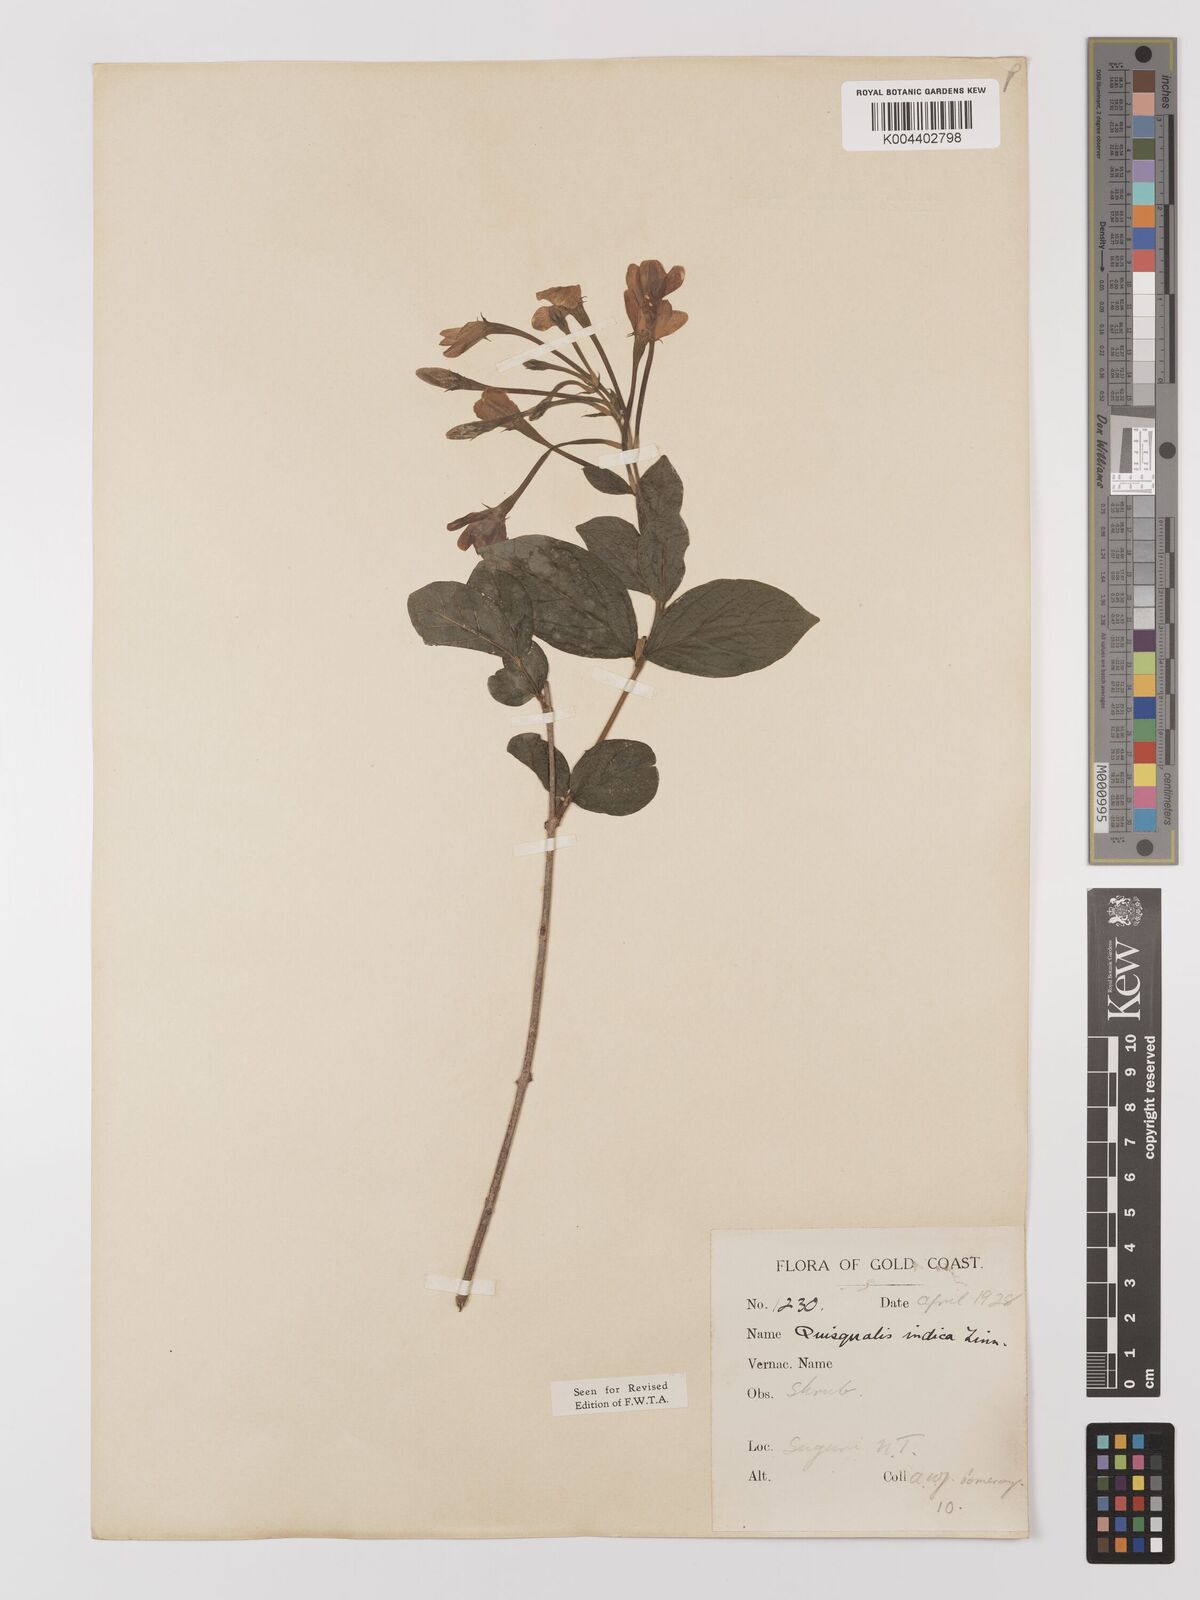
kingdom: Plantae
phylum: Tracheophyta
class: Magnoliopsida
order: Myrtales
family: Combretaceae
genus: Combretum
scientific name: Combretum
